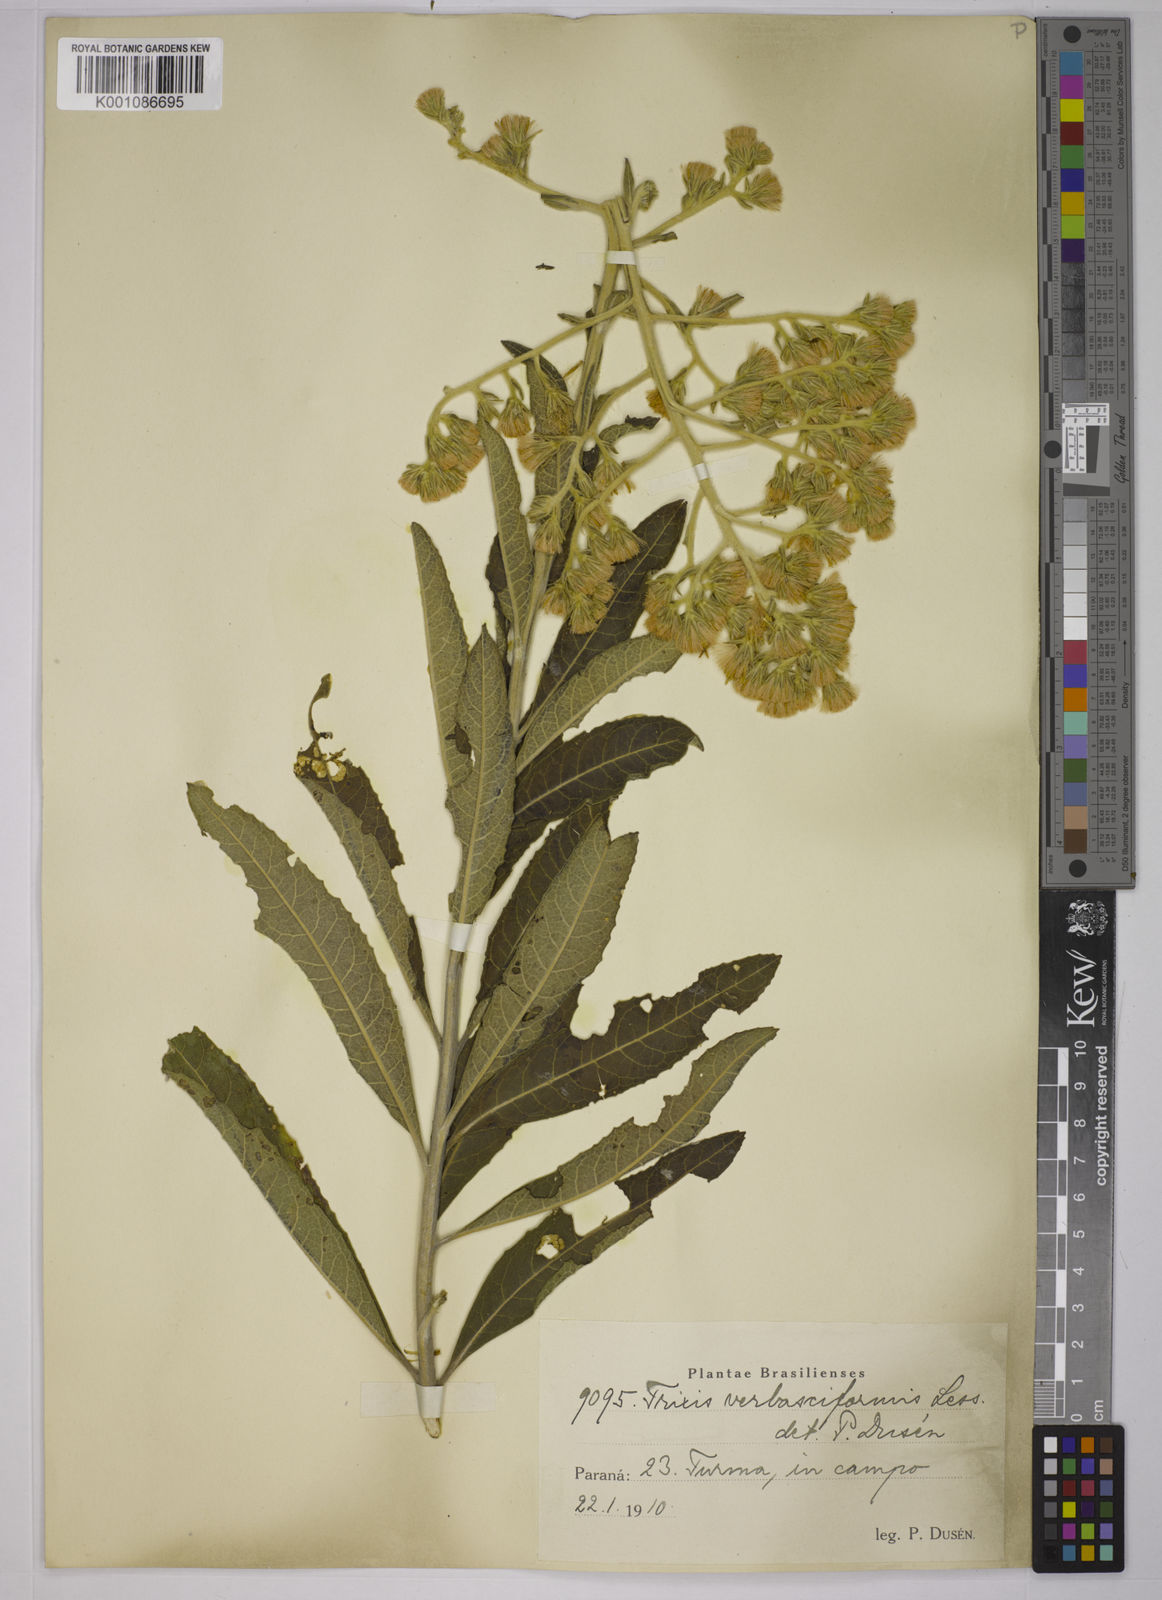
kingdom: Plantae
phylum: Tracheophyta
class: Magnoliopsida
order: Asterales
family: Asteraceae
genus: Trixis
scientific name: Trixis nobilis
